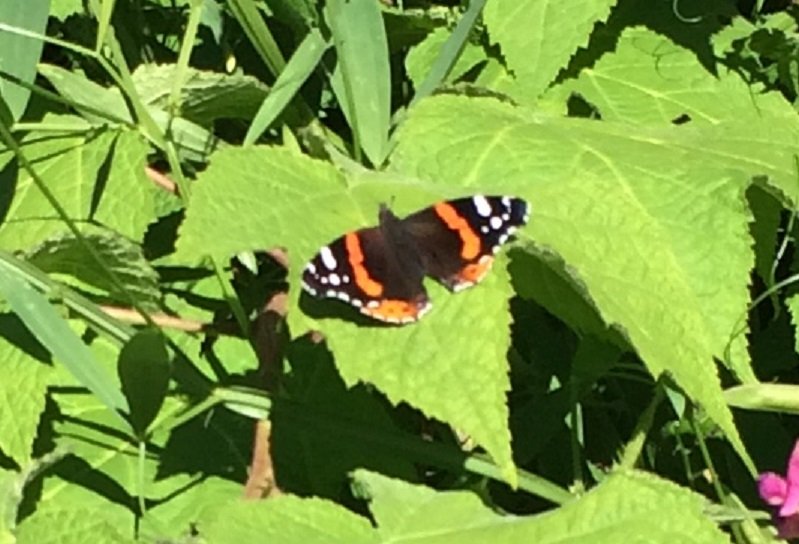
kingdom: Animalia
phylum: Arthropoda
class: Insecta
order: Lepidoptera
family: Nymphalidae
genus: Vanessa
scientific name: Vanessa atalanta
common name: Red Admiral
